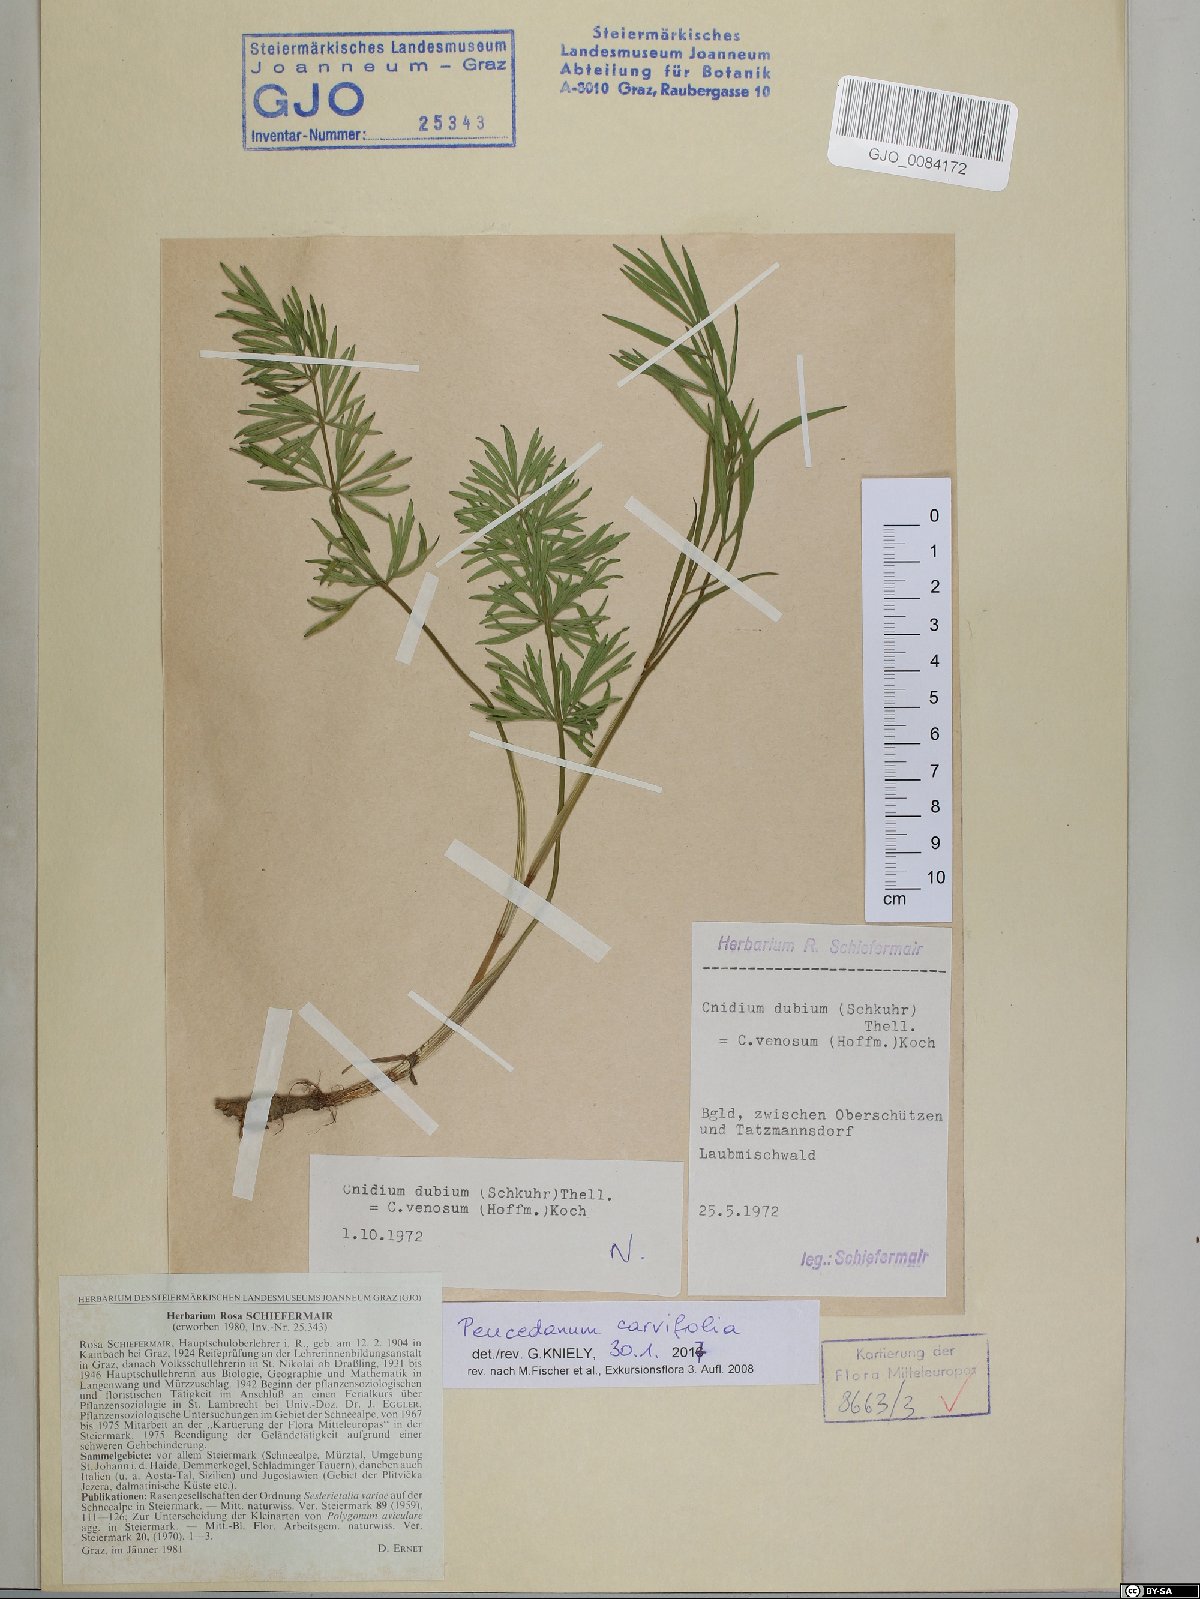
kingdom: Plantae
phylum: Tracheophyta
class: Magnoliopsida
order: Apiales
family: Apiaceae
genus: Dichoropetalum
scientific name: Dichoropetalum carvifolia
